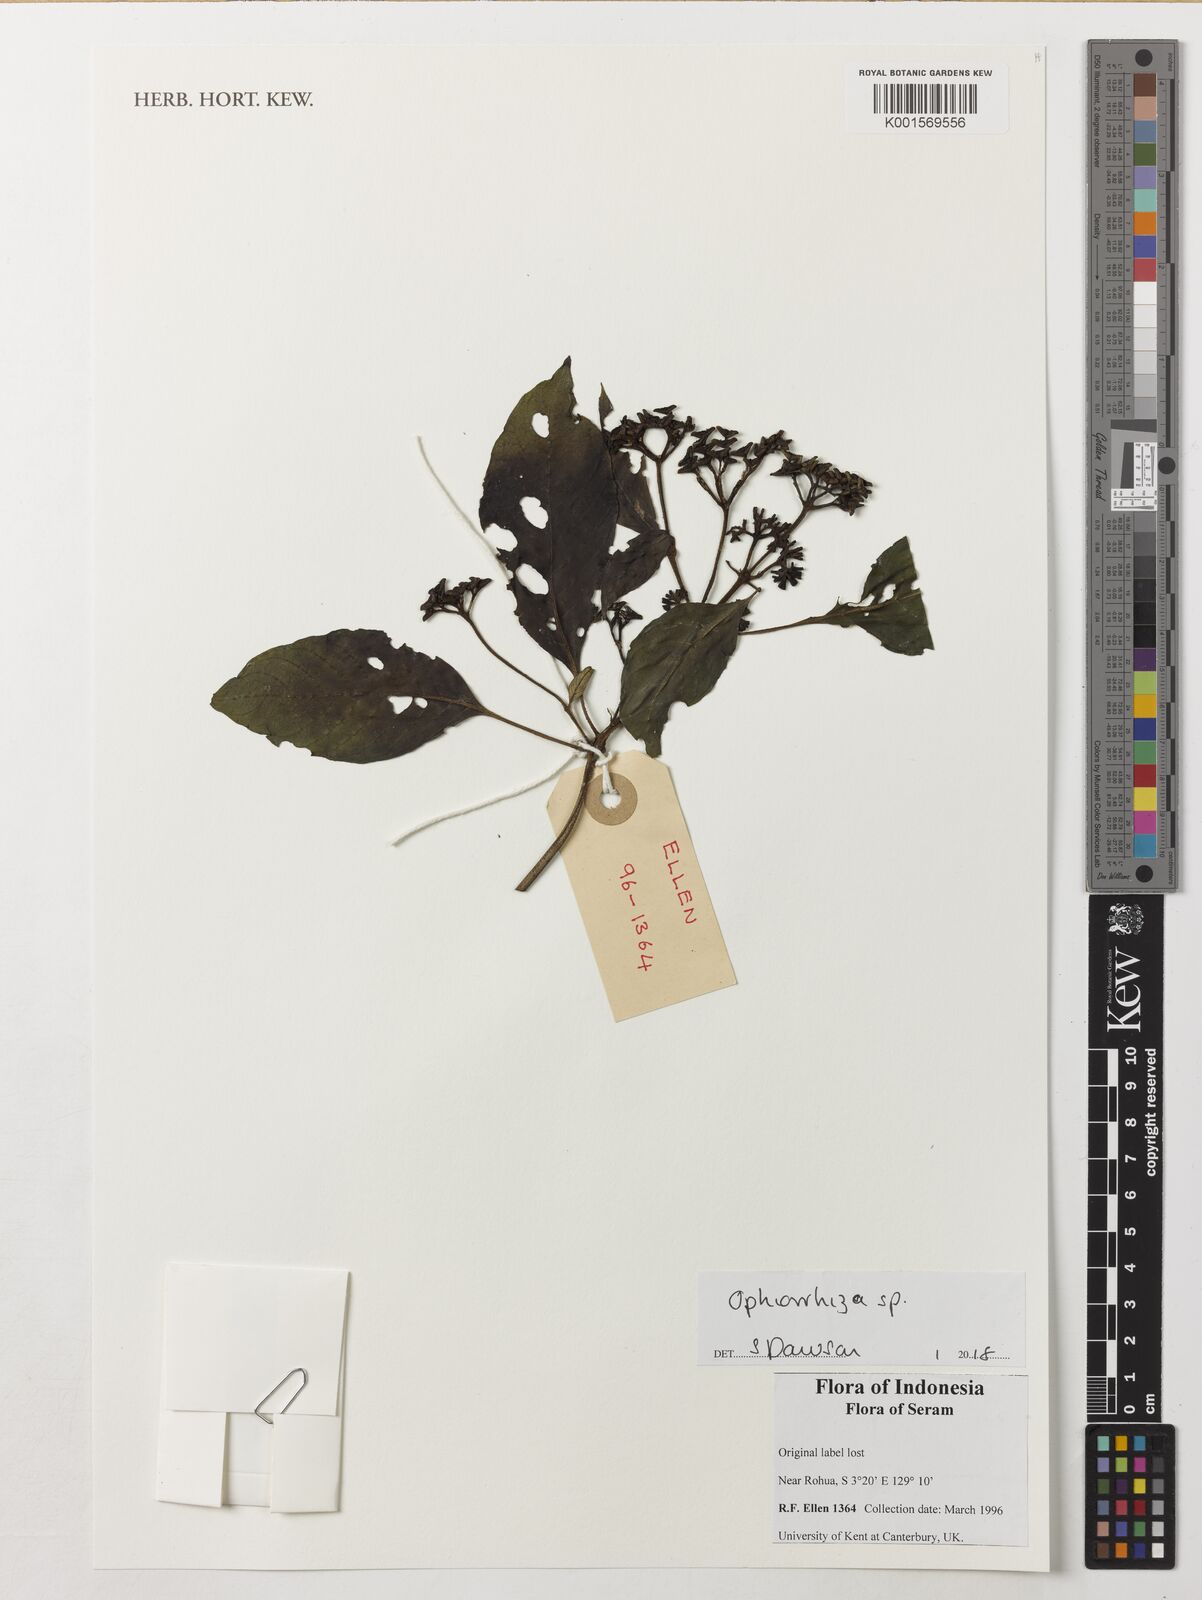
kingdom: Plantae
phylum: Tracheophyta
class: Magnoliopsida
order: Gentianales
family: Rubiaceae
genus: Ophiorrhiza
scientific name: Ophiorrhiza
